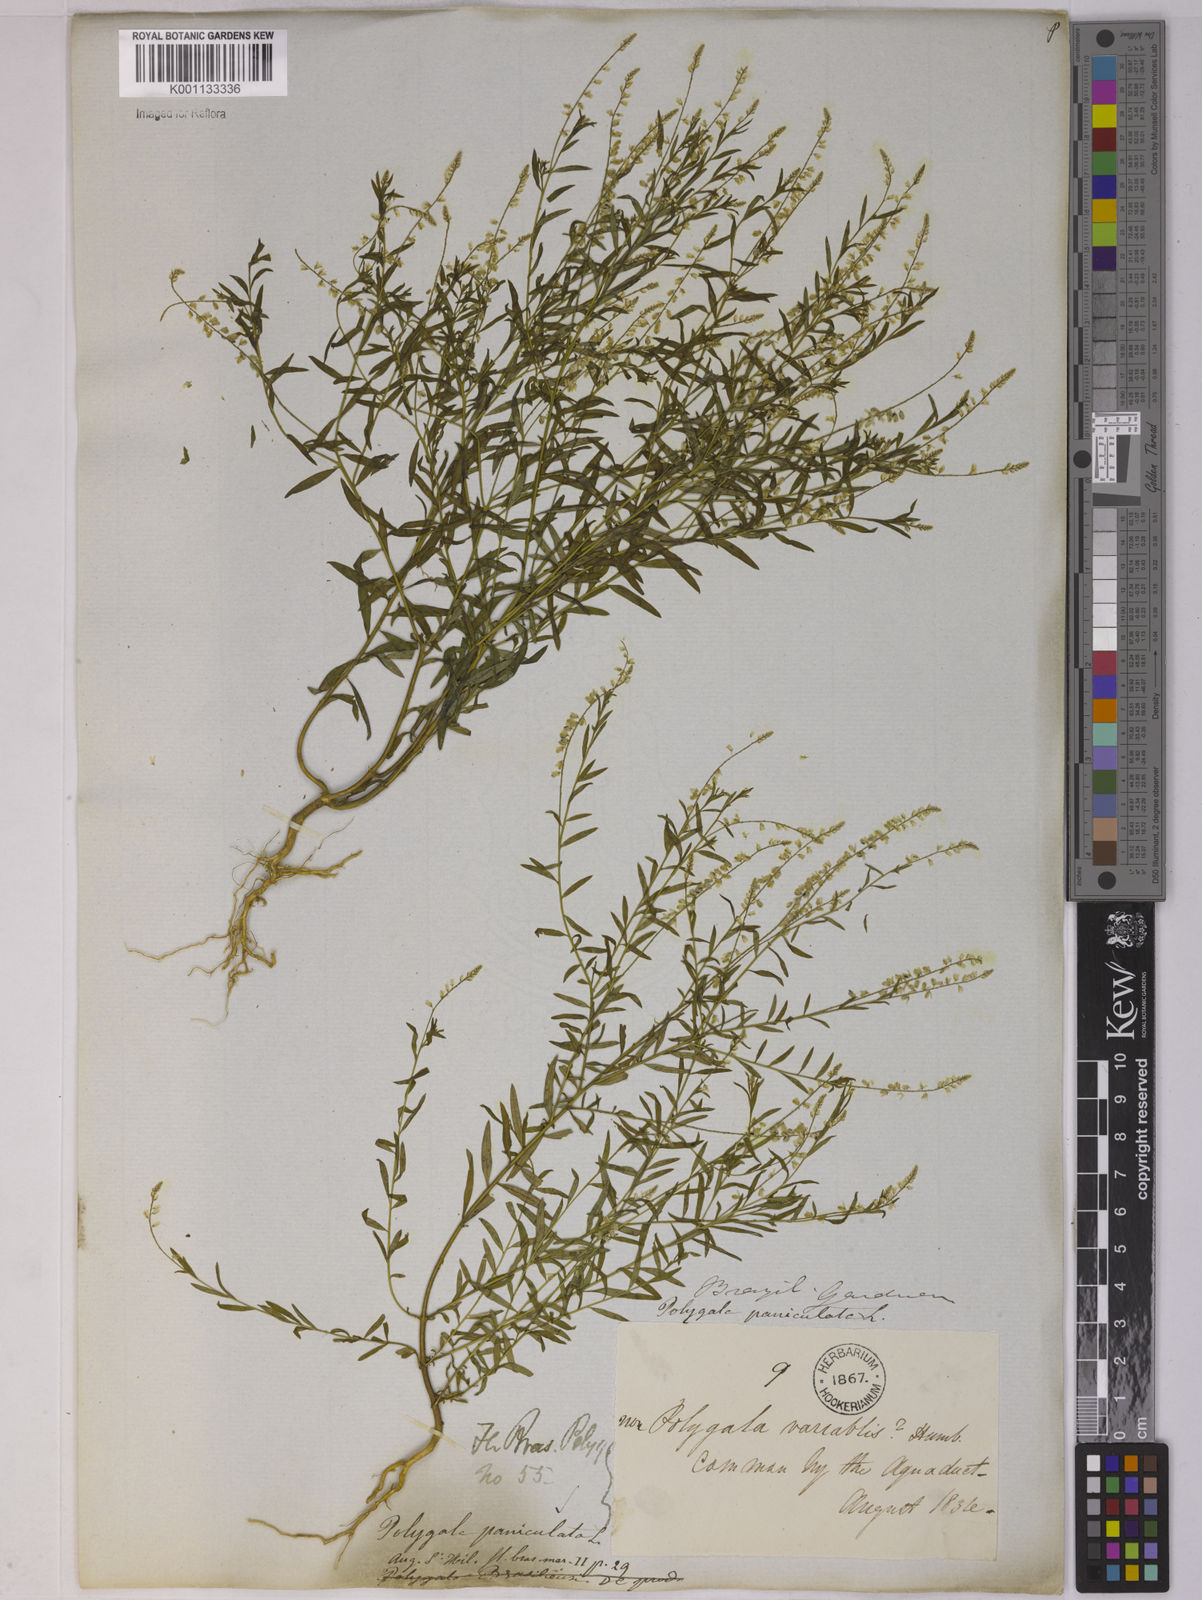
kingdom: Plantae
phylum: Tracheophyta
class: Magnoliopsida
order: Fabales
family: Polygalaceae
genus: Polygala
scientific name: Polygala paniculata
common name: Orosne
